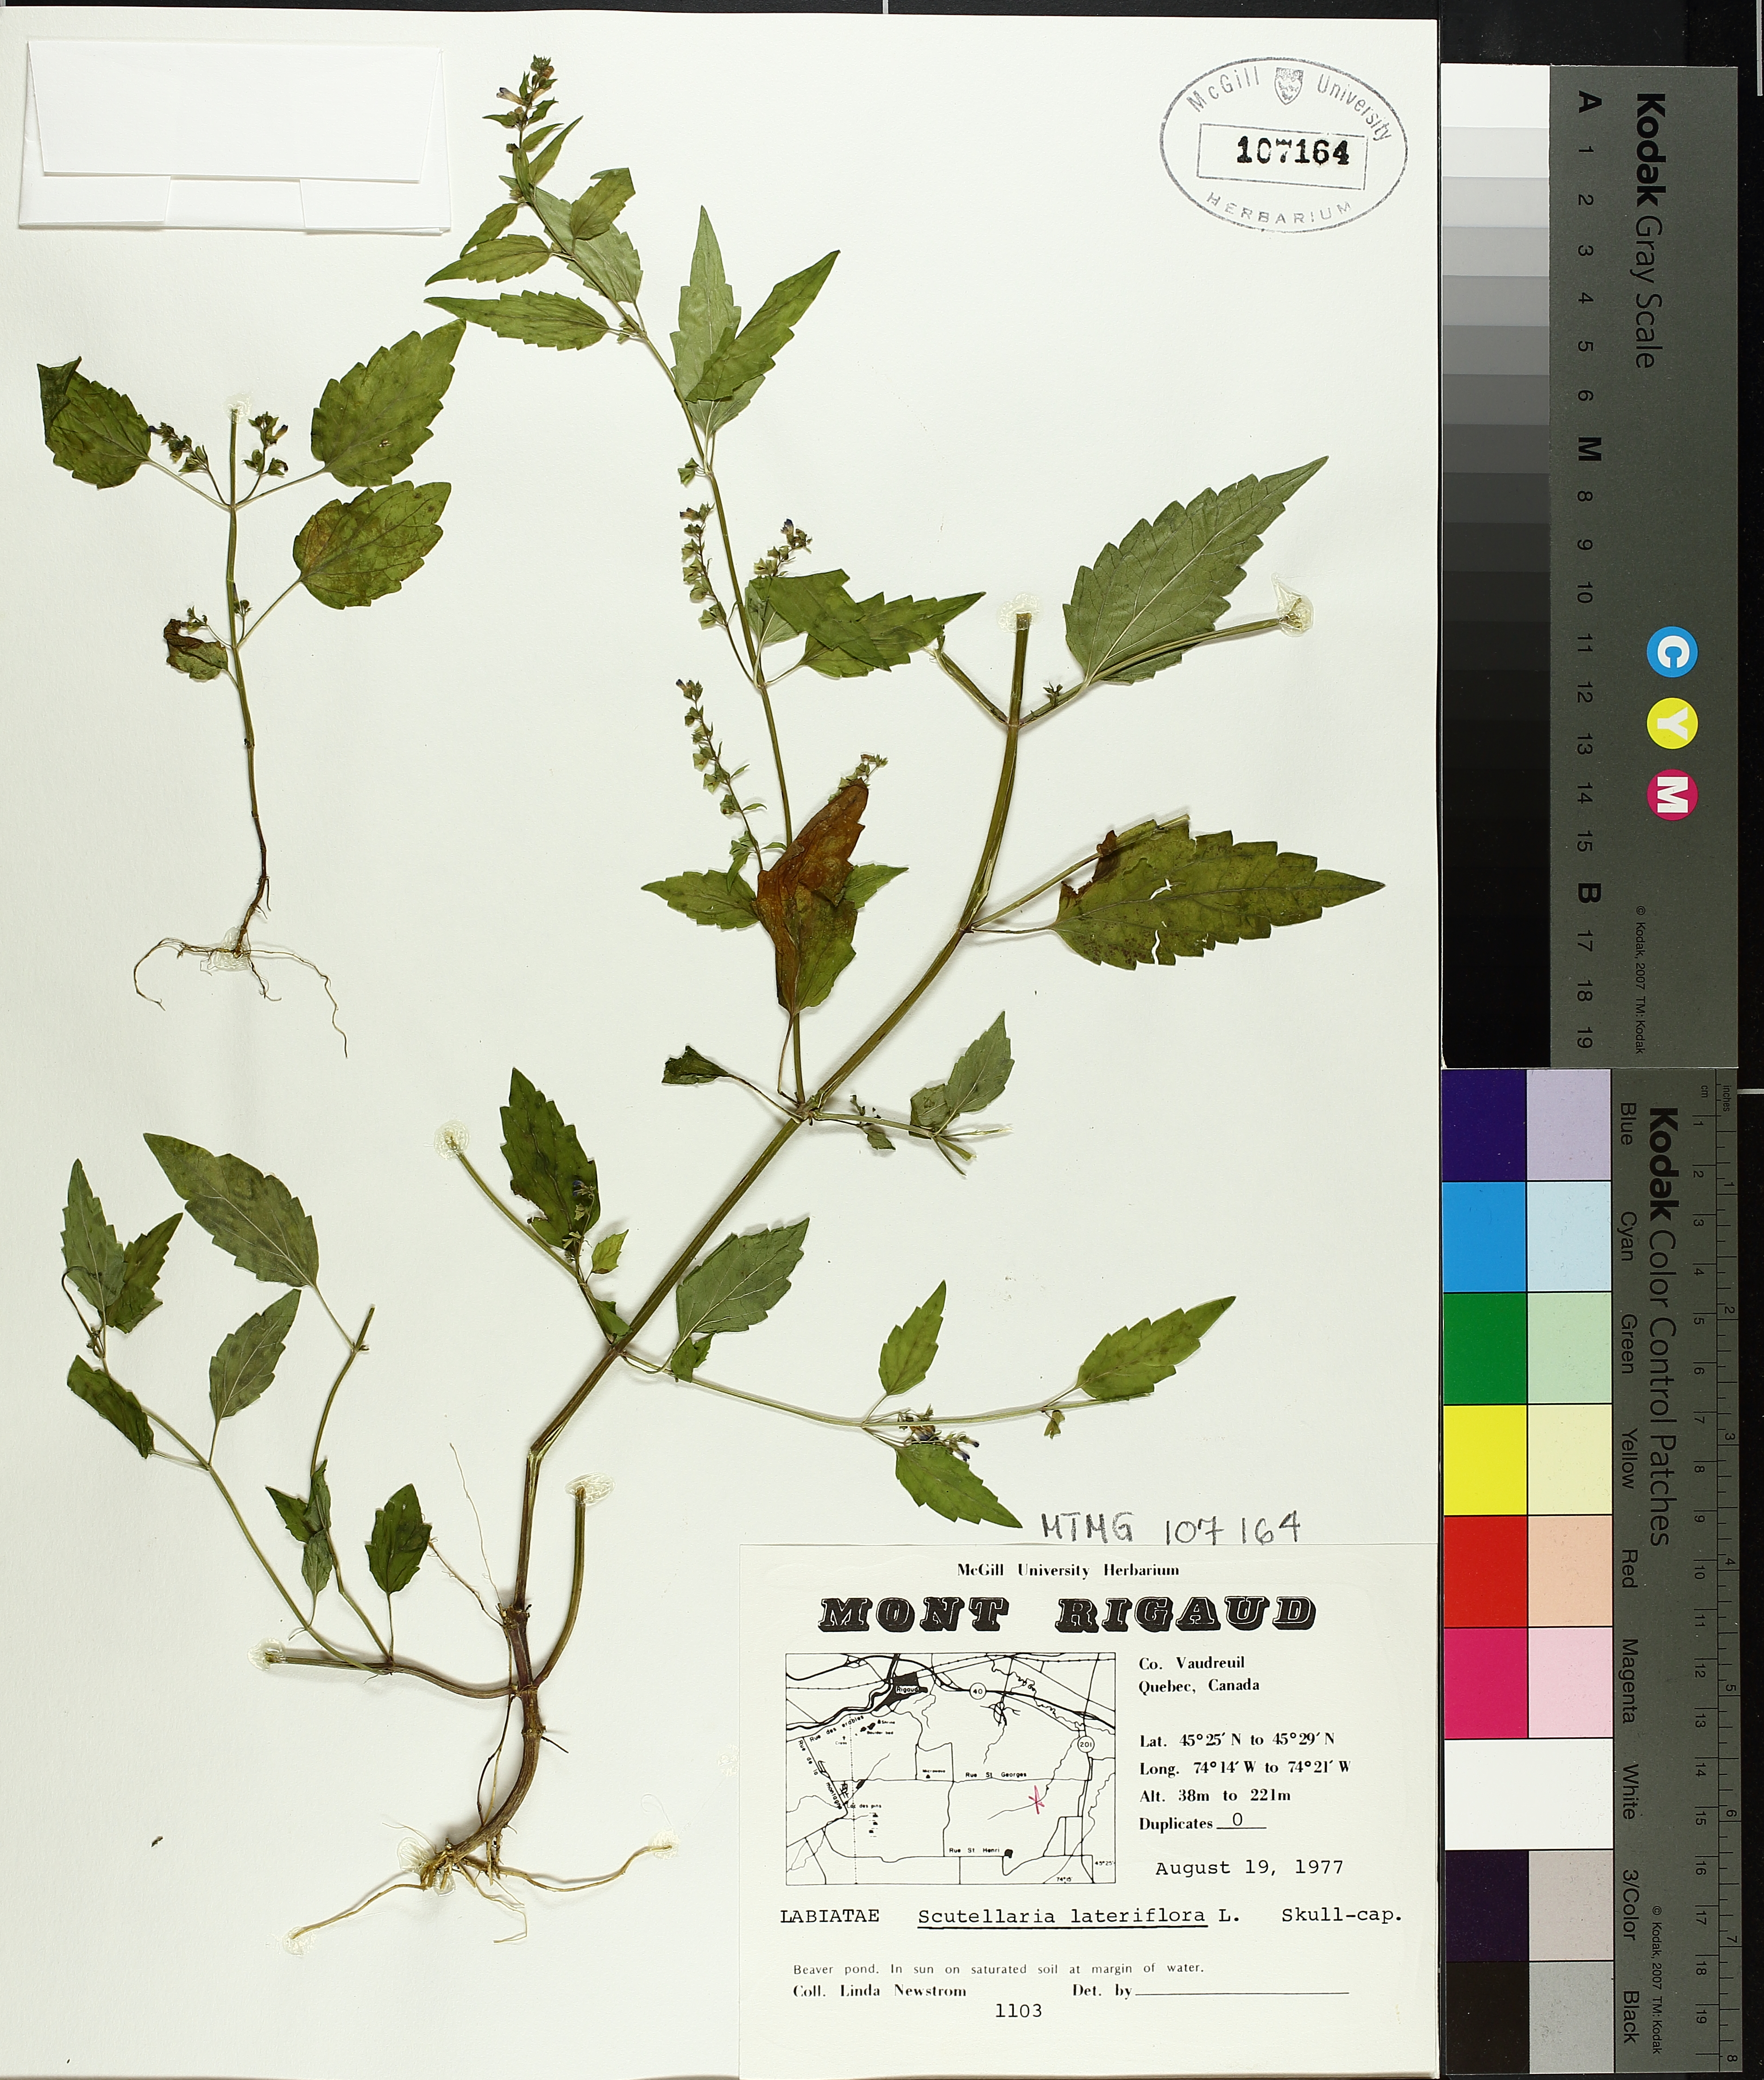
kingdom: Plantae
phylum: Tracheophyta
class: Magnoliopsida
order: Lamiales
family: Lamiaceae
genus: Scutellaria
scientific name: Scutellaria lateriflora
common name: Blue skullcap
